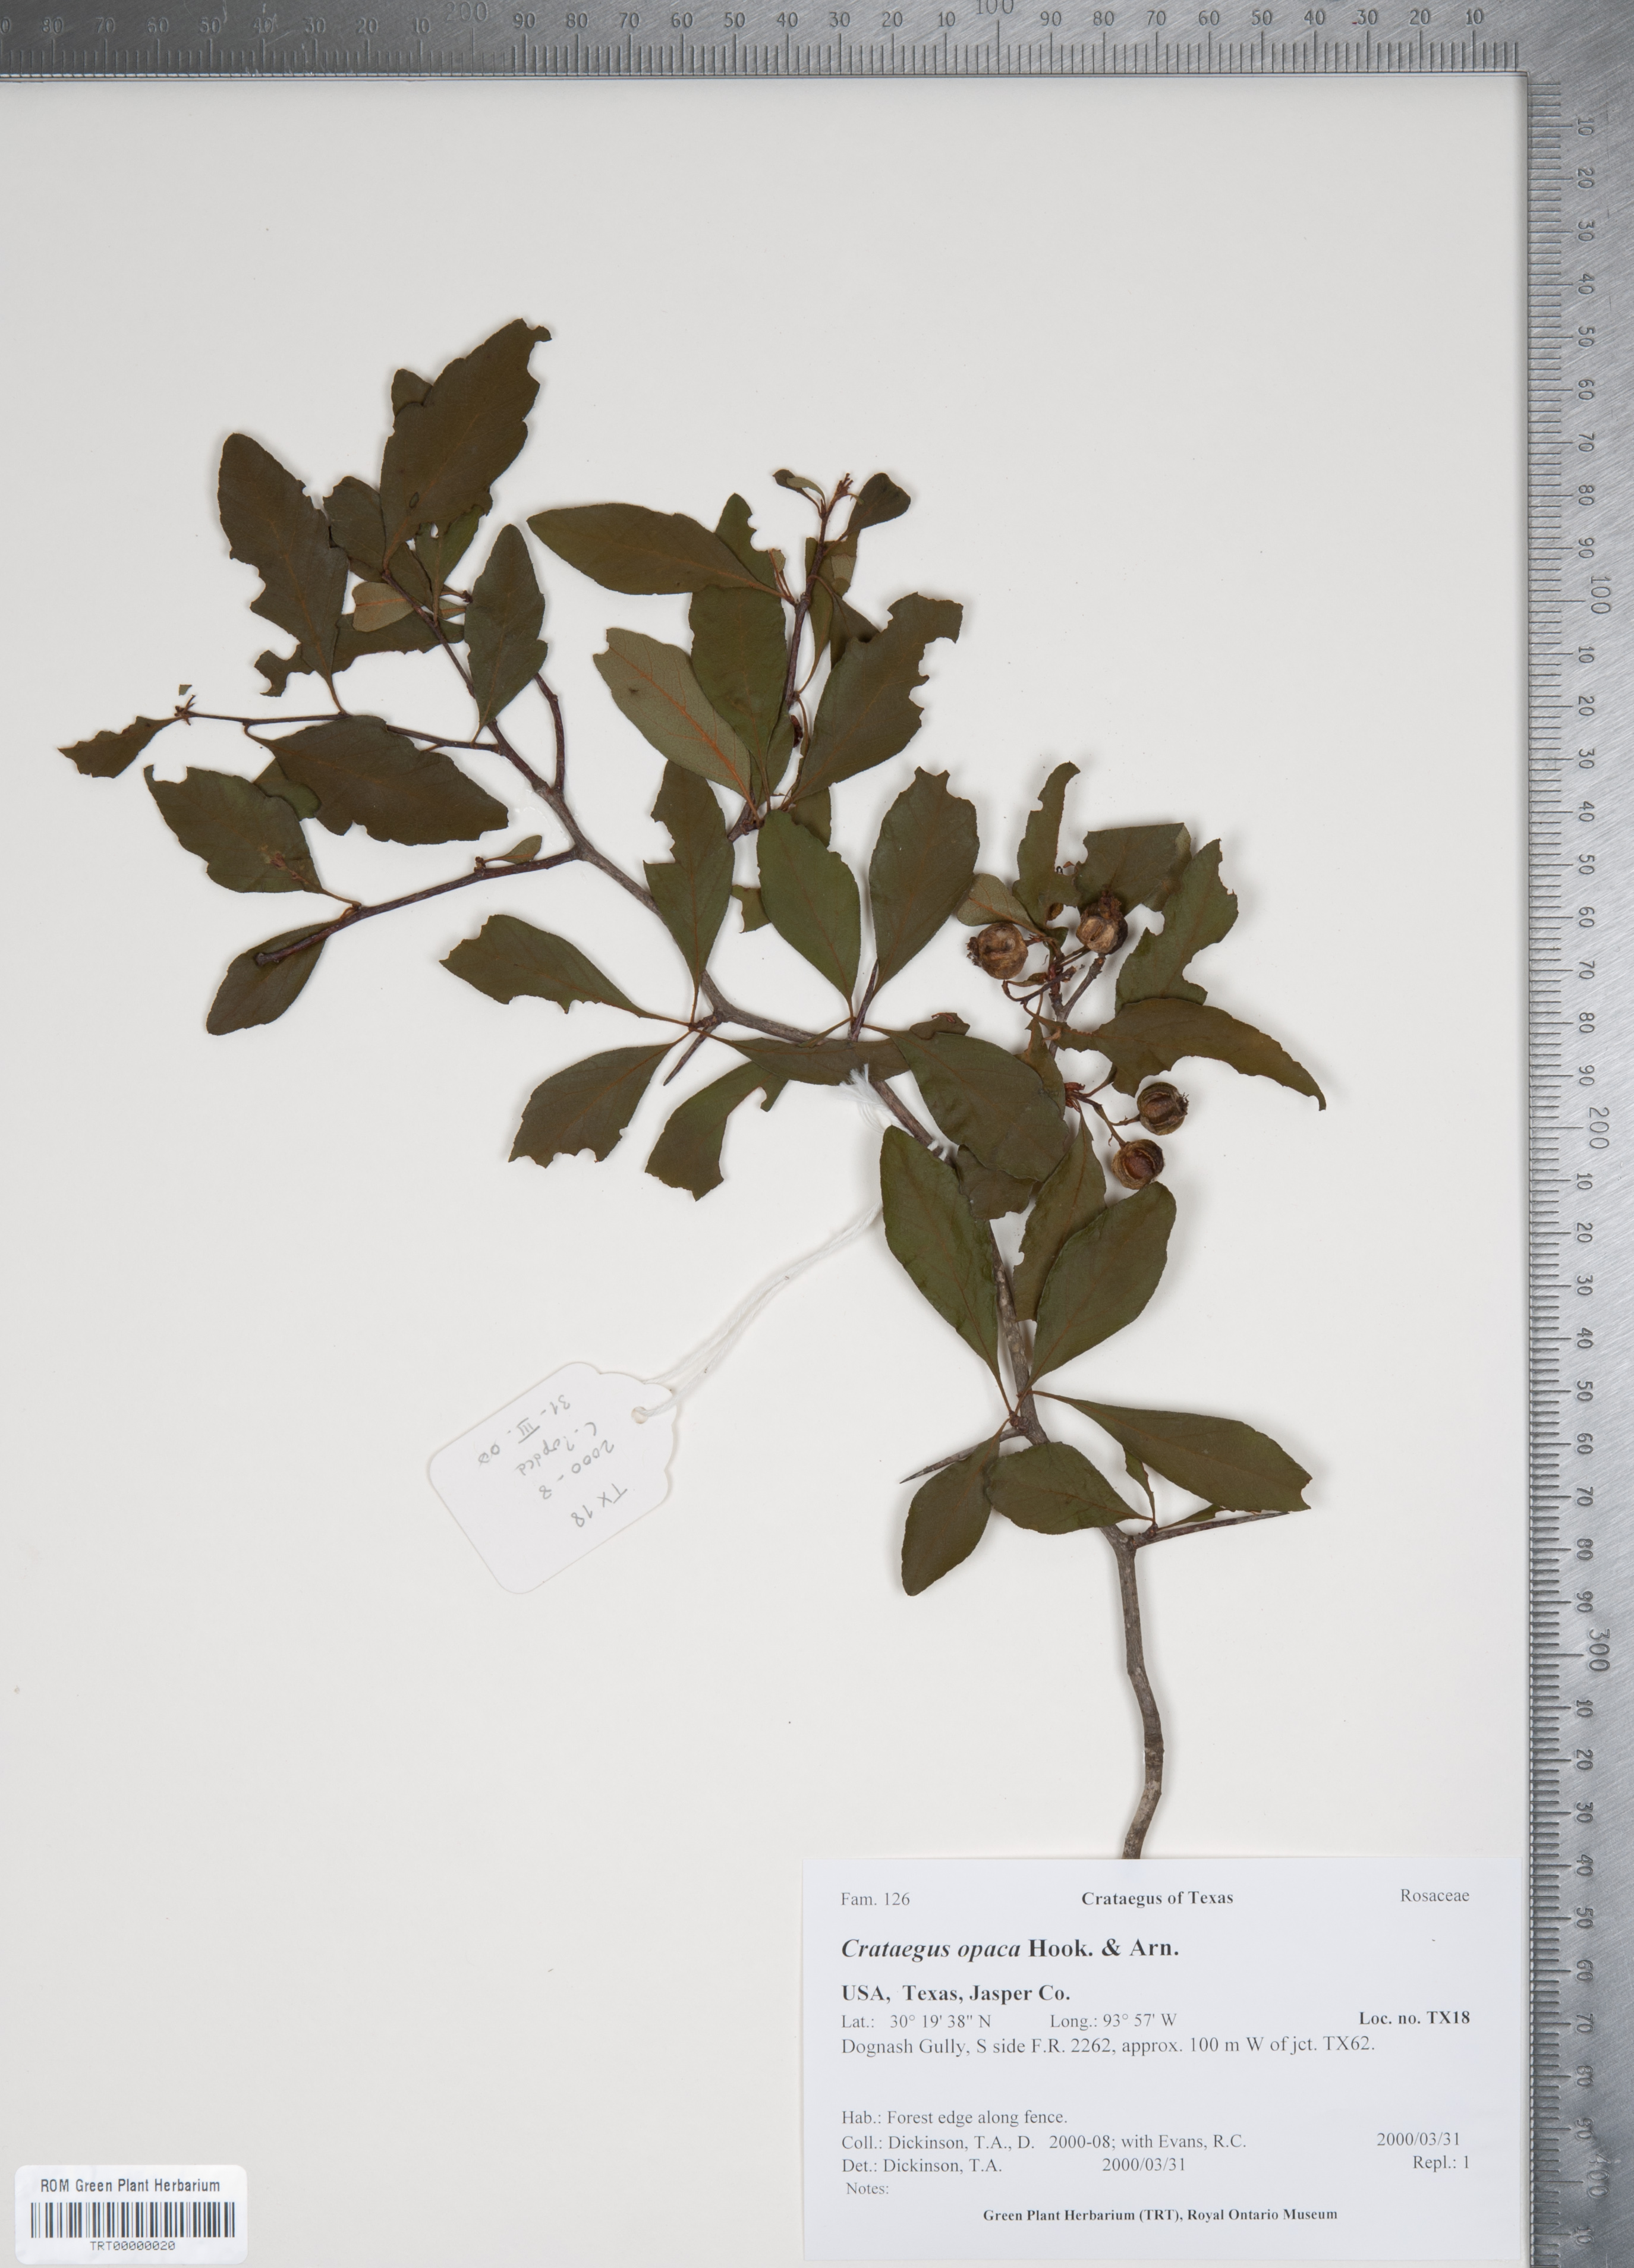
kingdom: Plantae
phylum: Tracheophyta
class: Magnoliopsida
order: Rosales
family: Rosaceae
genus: Crataegus
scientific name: Crataegus opaca
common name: Apple haw
